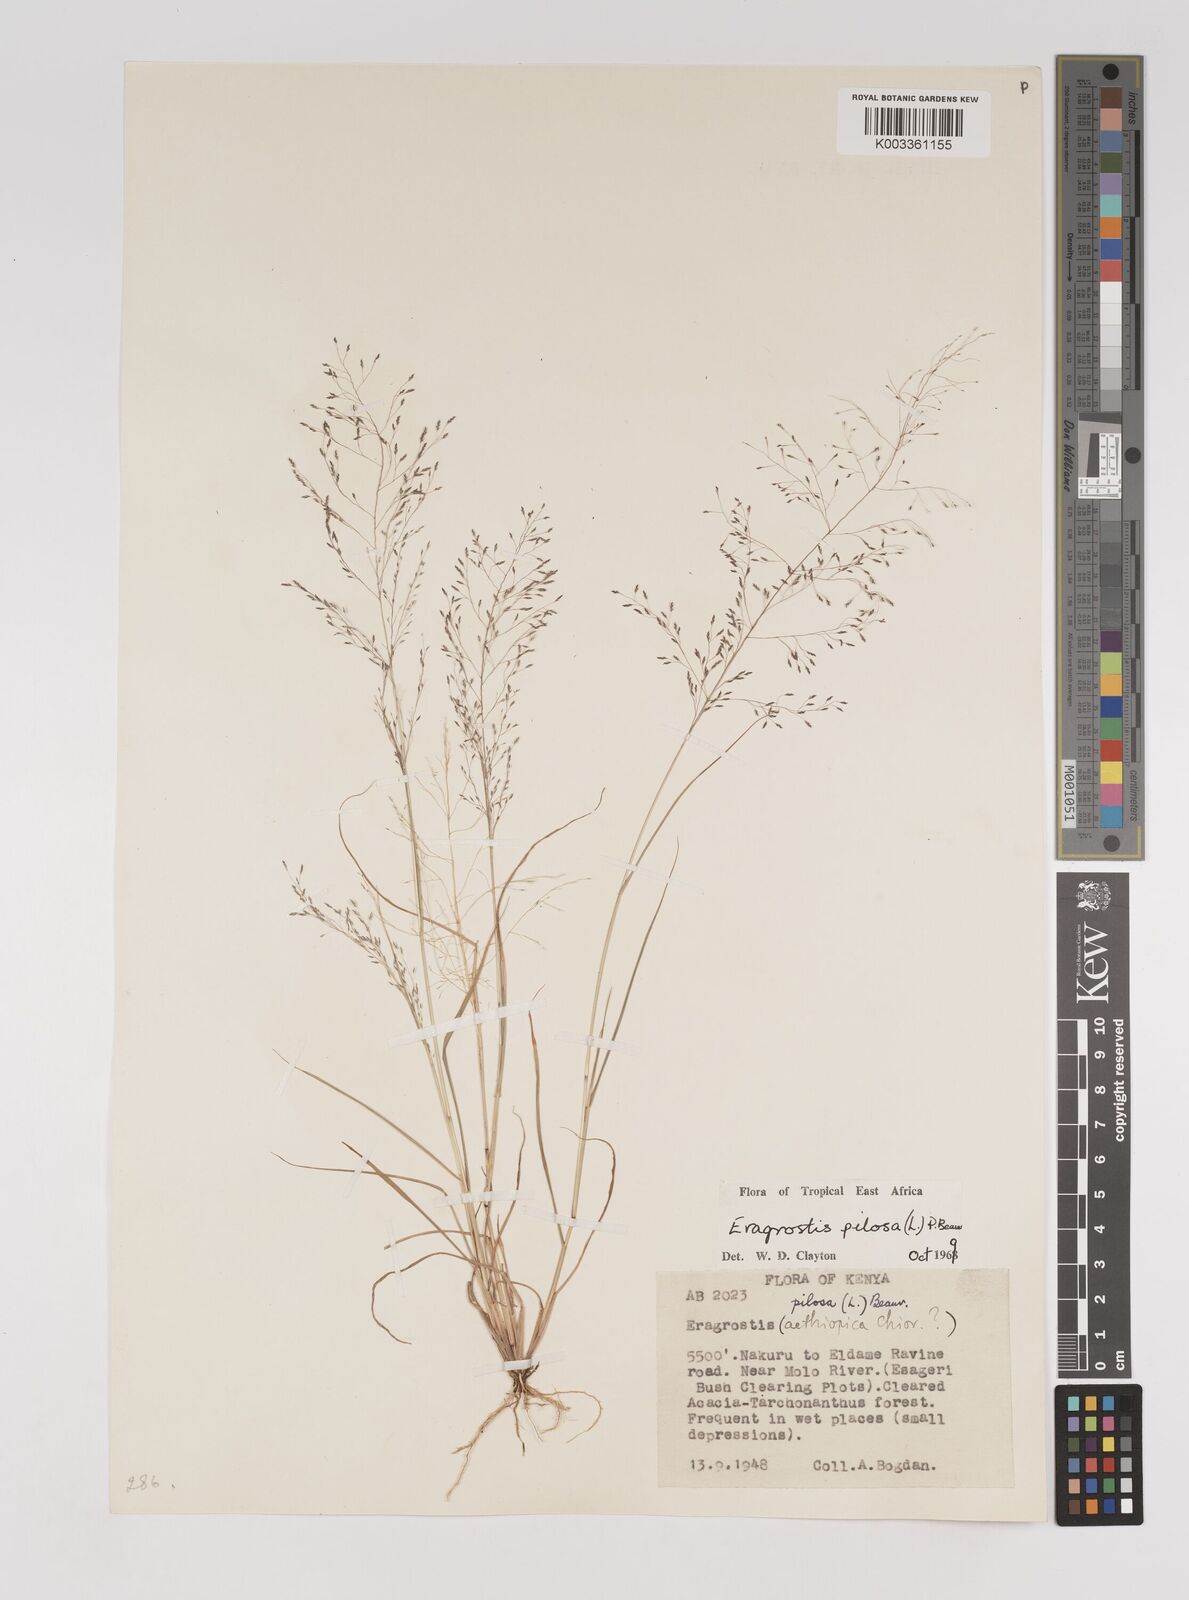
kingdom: Plantae
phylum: Tracheophyta
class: Liliopsida
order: Poales
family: Poaceae
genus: Eragrostis
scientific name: Eragrostis pilosa
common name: Indian lovegrass
